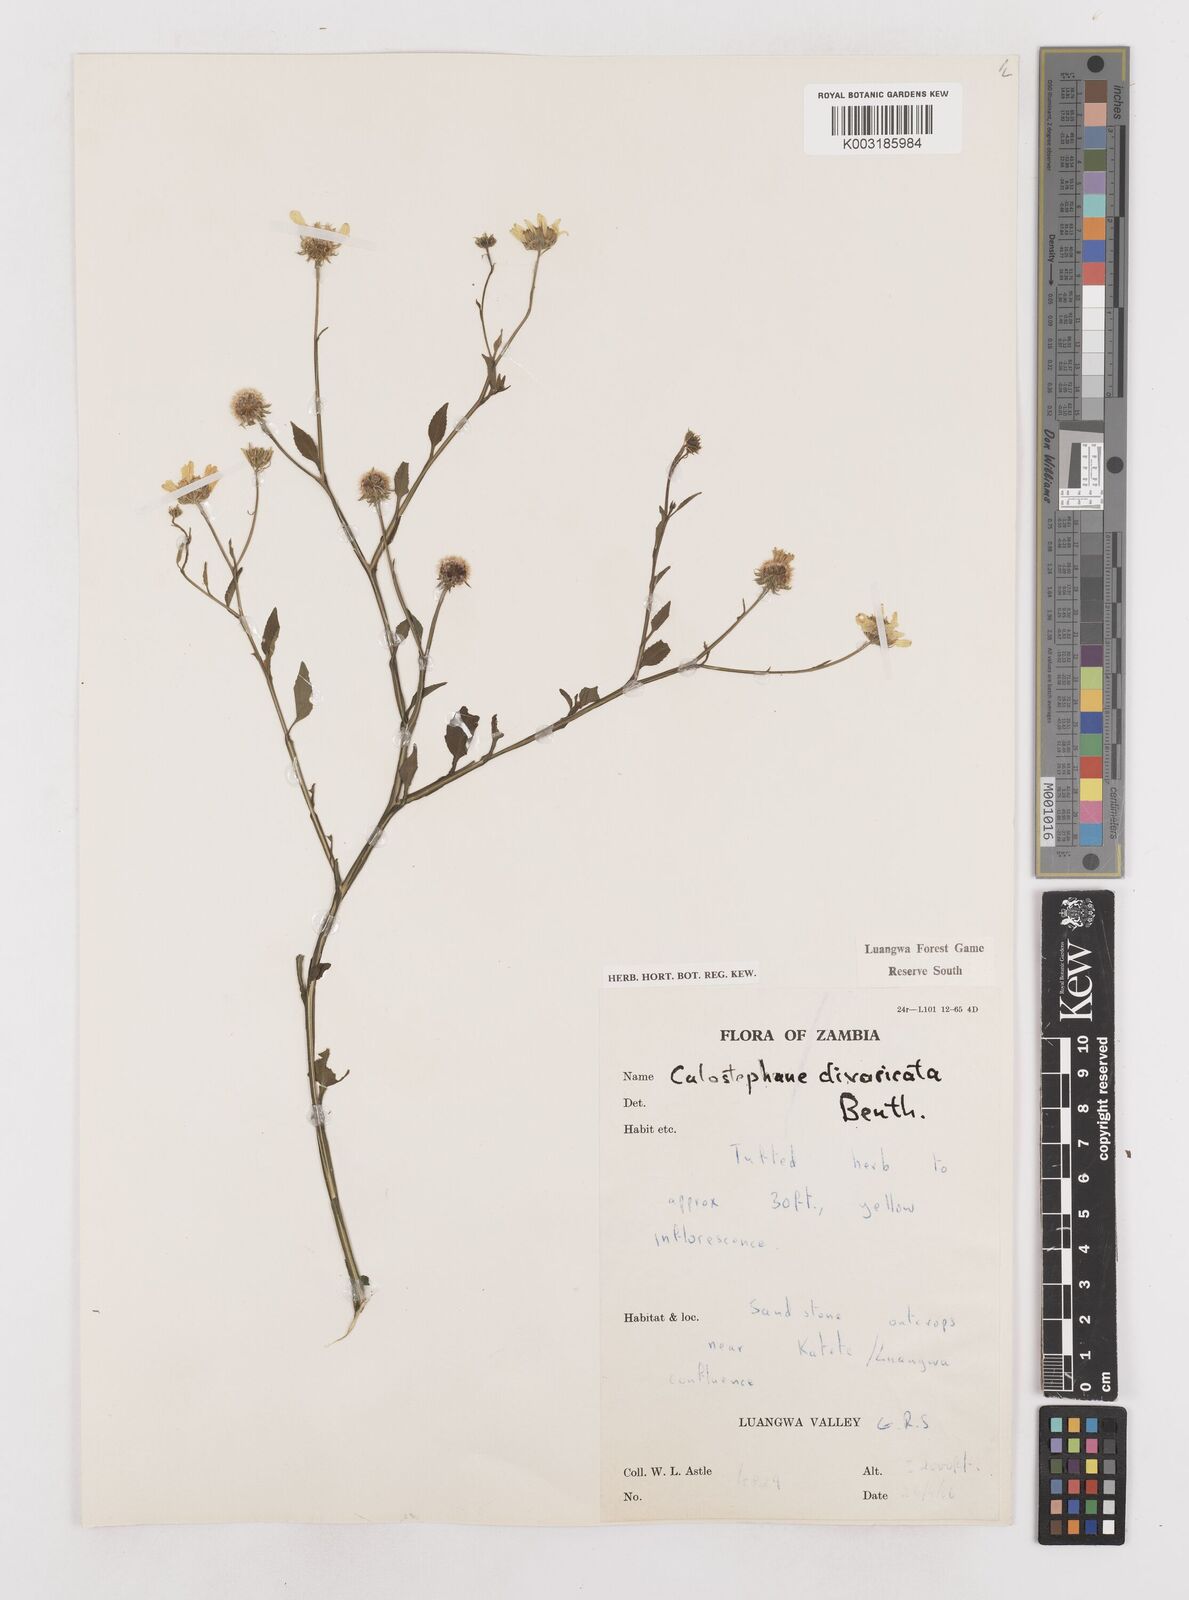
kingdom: Plantae
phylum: Tracheophyta
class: Magnoliopsida
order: Asterales
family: Asteraceae
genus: Calostephane
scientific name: Calostephane divaricata
